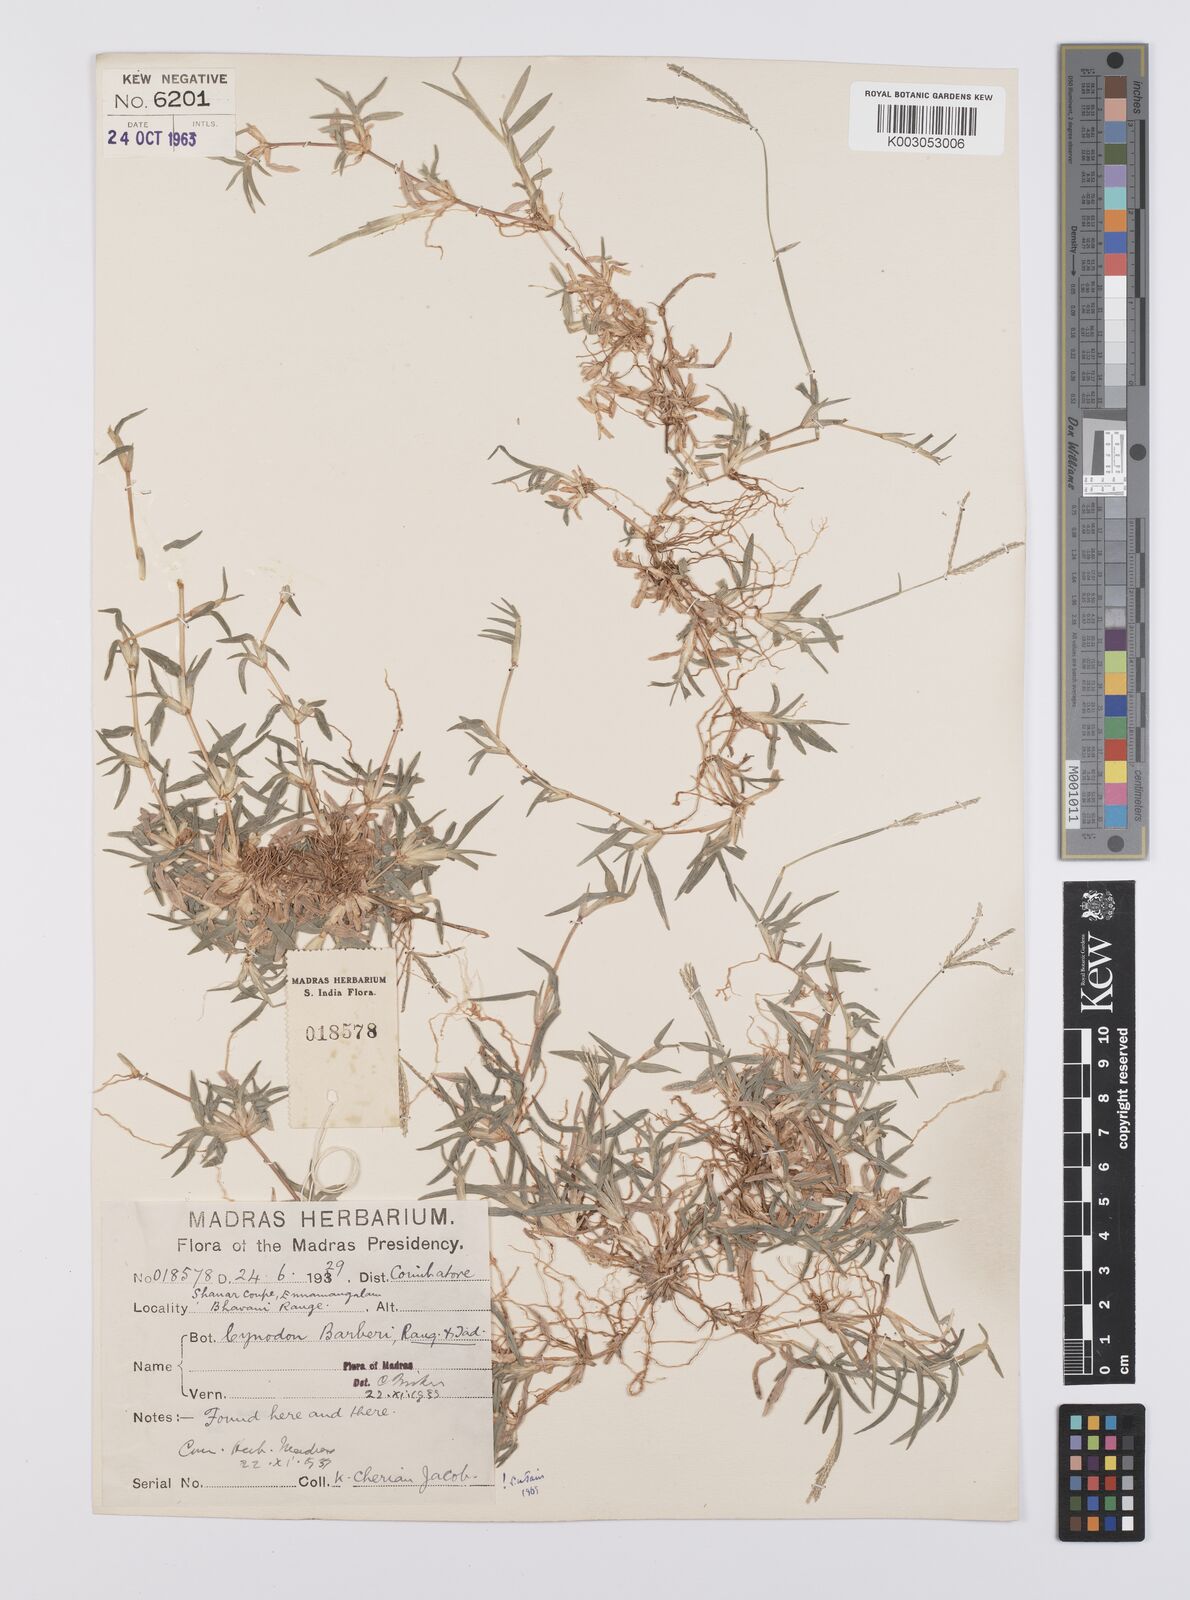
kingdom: Plantae
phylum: Tracheophyta
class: Liliopsida
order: Poales
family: Poaceae
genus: Cynodon
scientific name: Cynodon barberi
